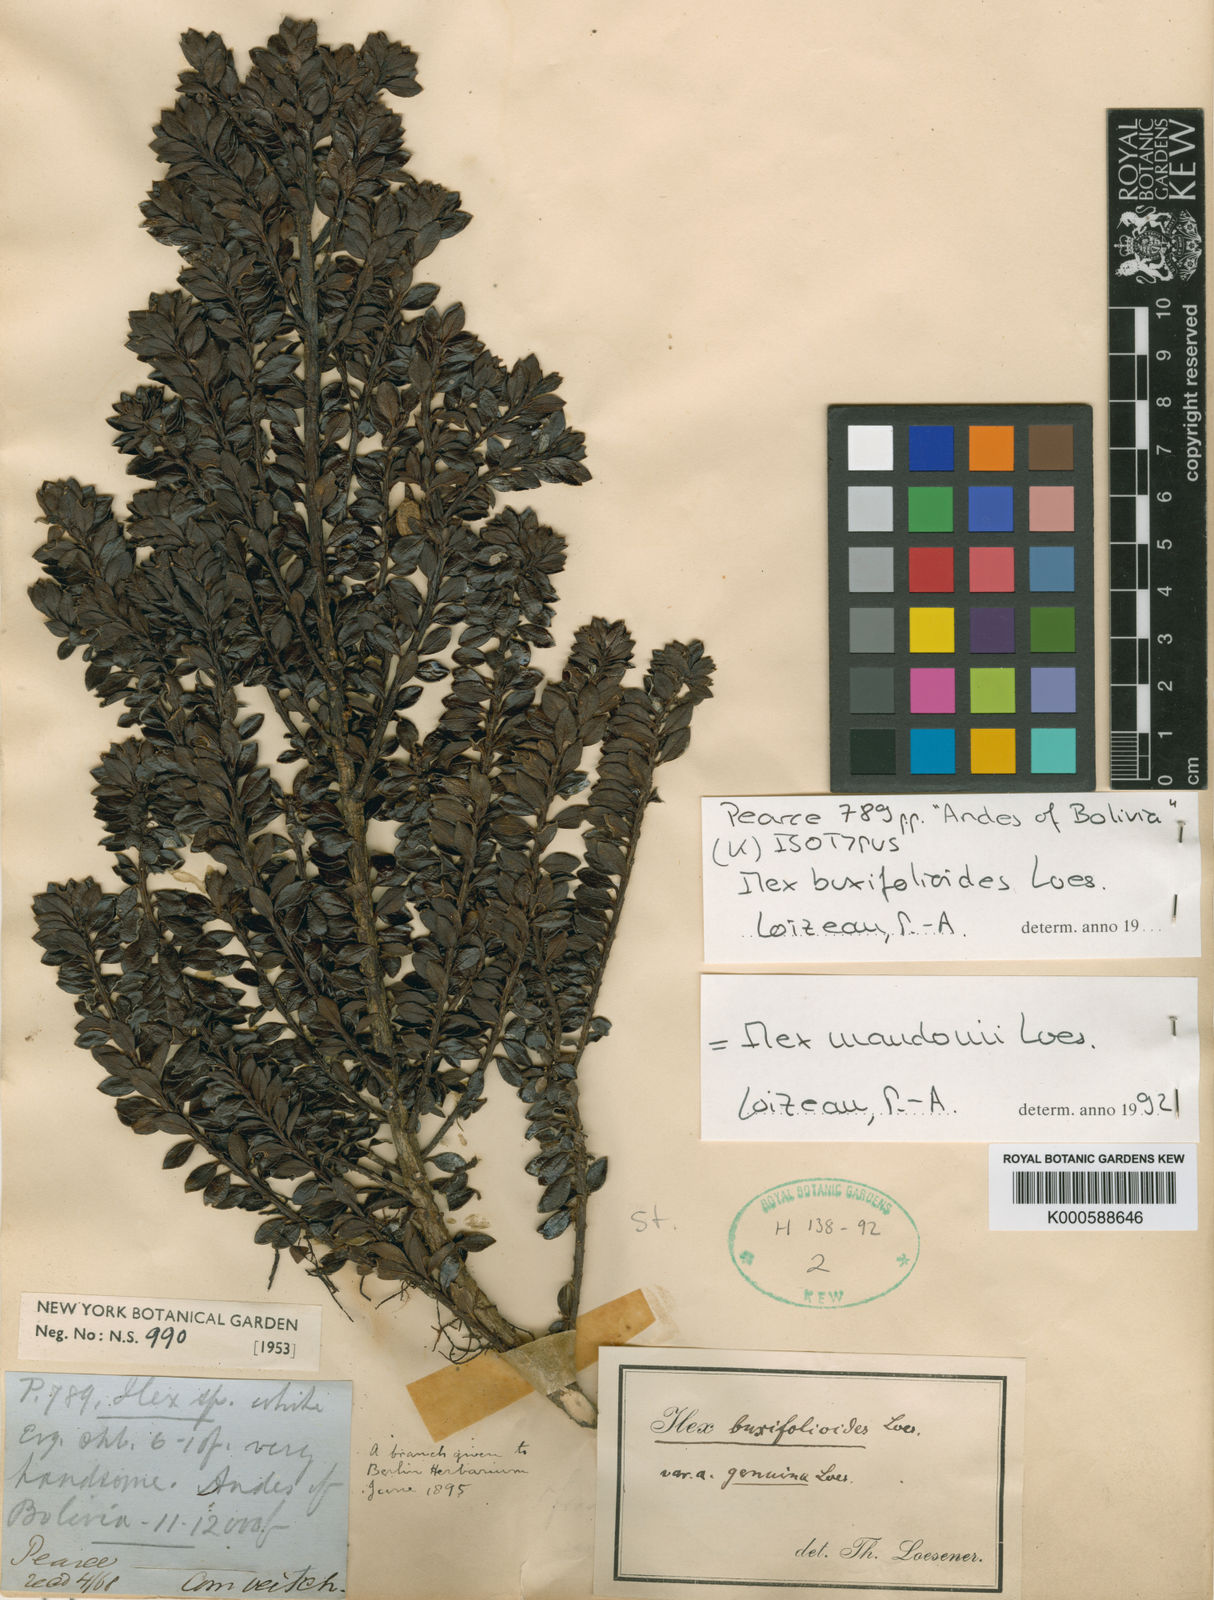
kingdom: Plantae
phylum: Tracheophyta
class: Magnoliopsida
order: Aquifoliales
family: Aquifoliaceae
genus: Ilex
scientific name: Ilex mandonii
